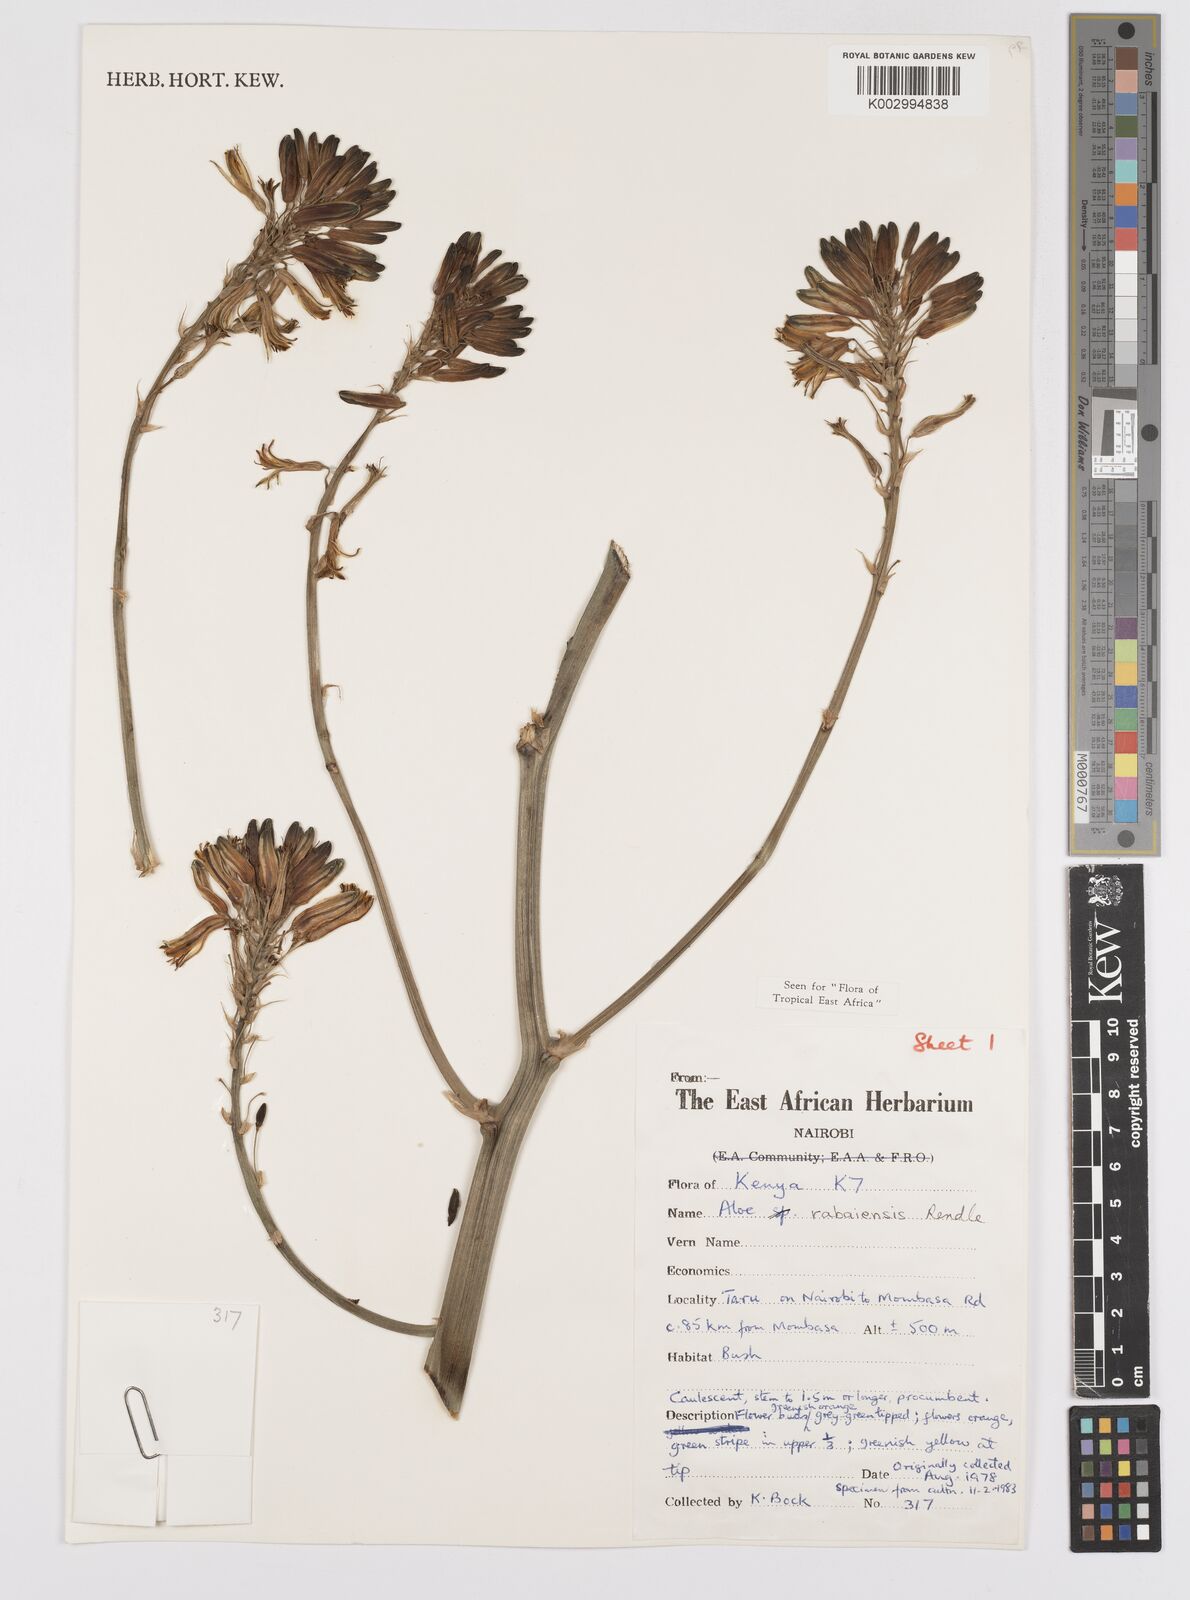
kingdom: Plantae
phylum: Tracheophyta
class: Liliopsida
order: Asparagales
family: Asphodelaceae
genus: Aloe
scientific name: Aloe rabaiensis
